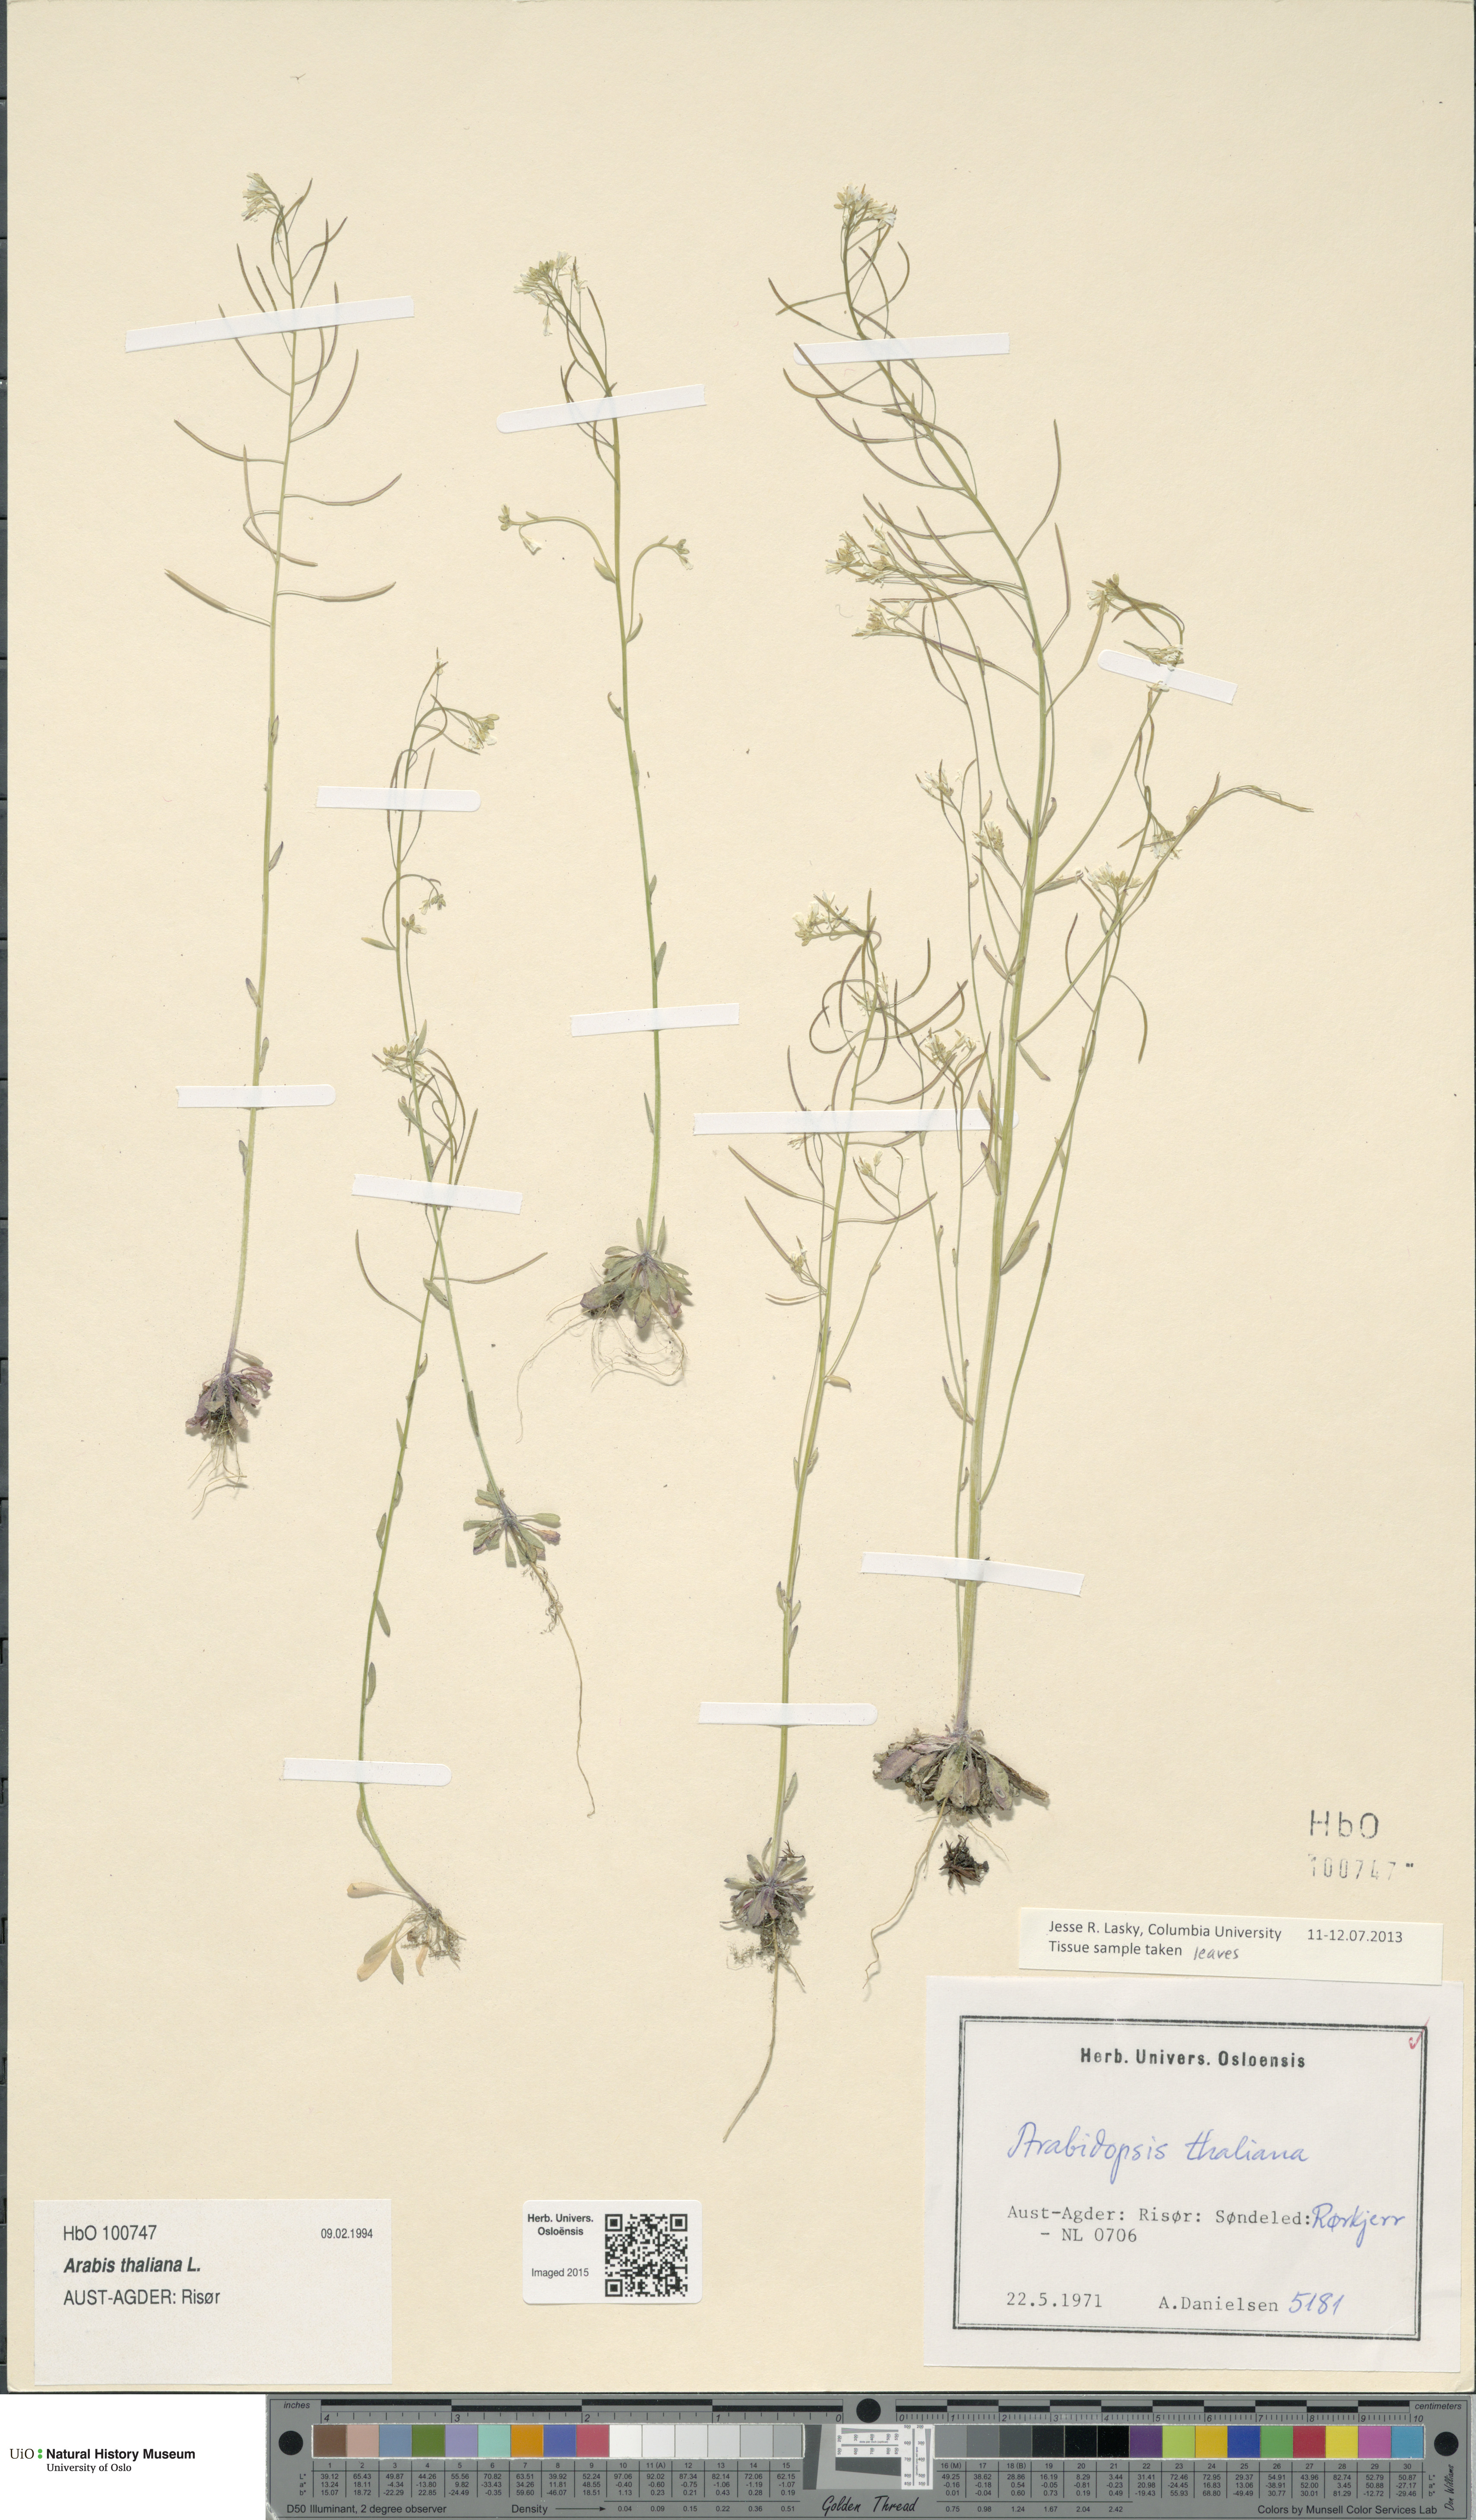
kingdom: Plantae
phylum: Tracheophyta
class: Magnoliopsida
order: Brassicales
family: Brassicaceae
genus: Arabidopsis
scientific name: Arabidopsis thaliana
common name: Thale cress
